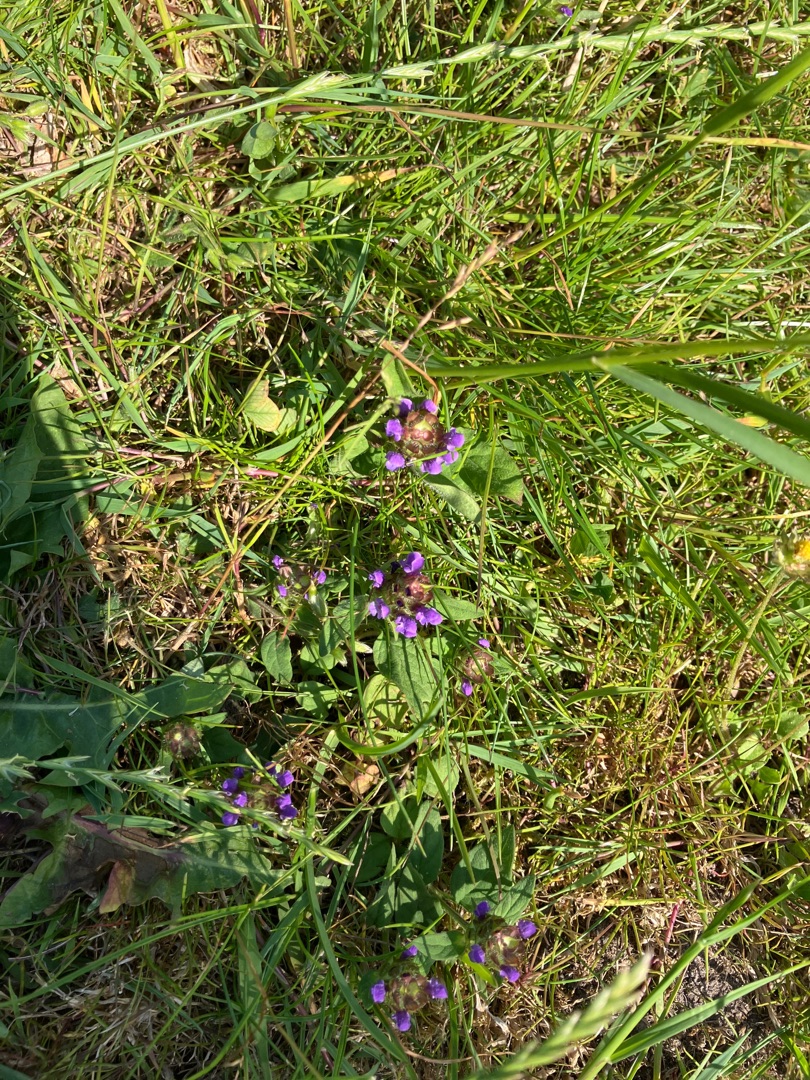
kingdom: Plantae
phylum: Tracheophyta
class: Magnoliopsida
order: Lamiales
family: Lamiaceae
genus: Prunella
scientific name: Prunella vulgaris
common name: Almindelig brunelle
